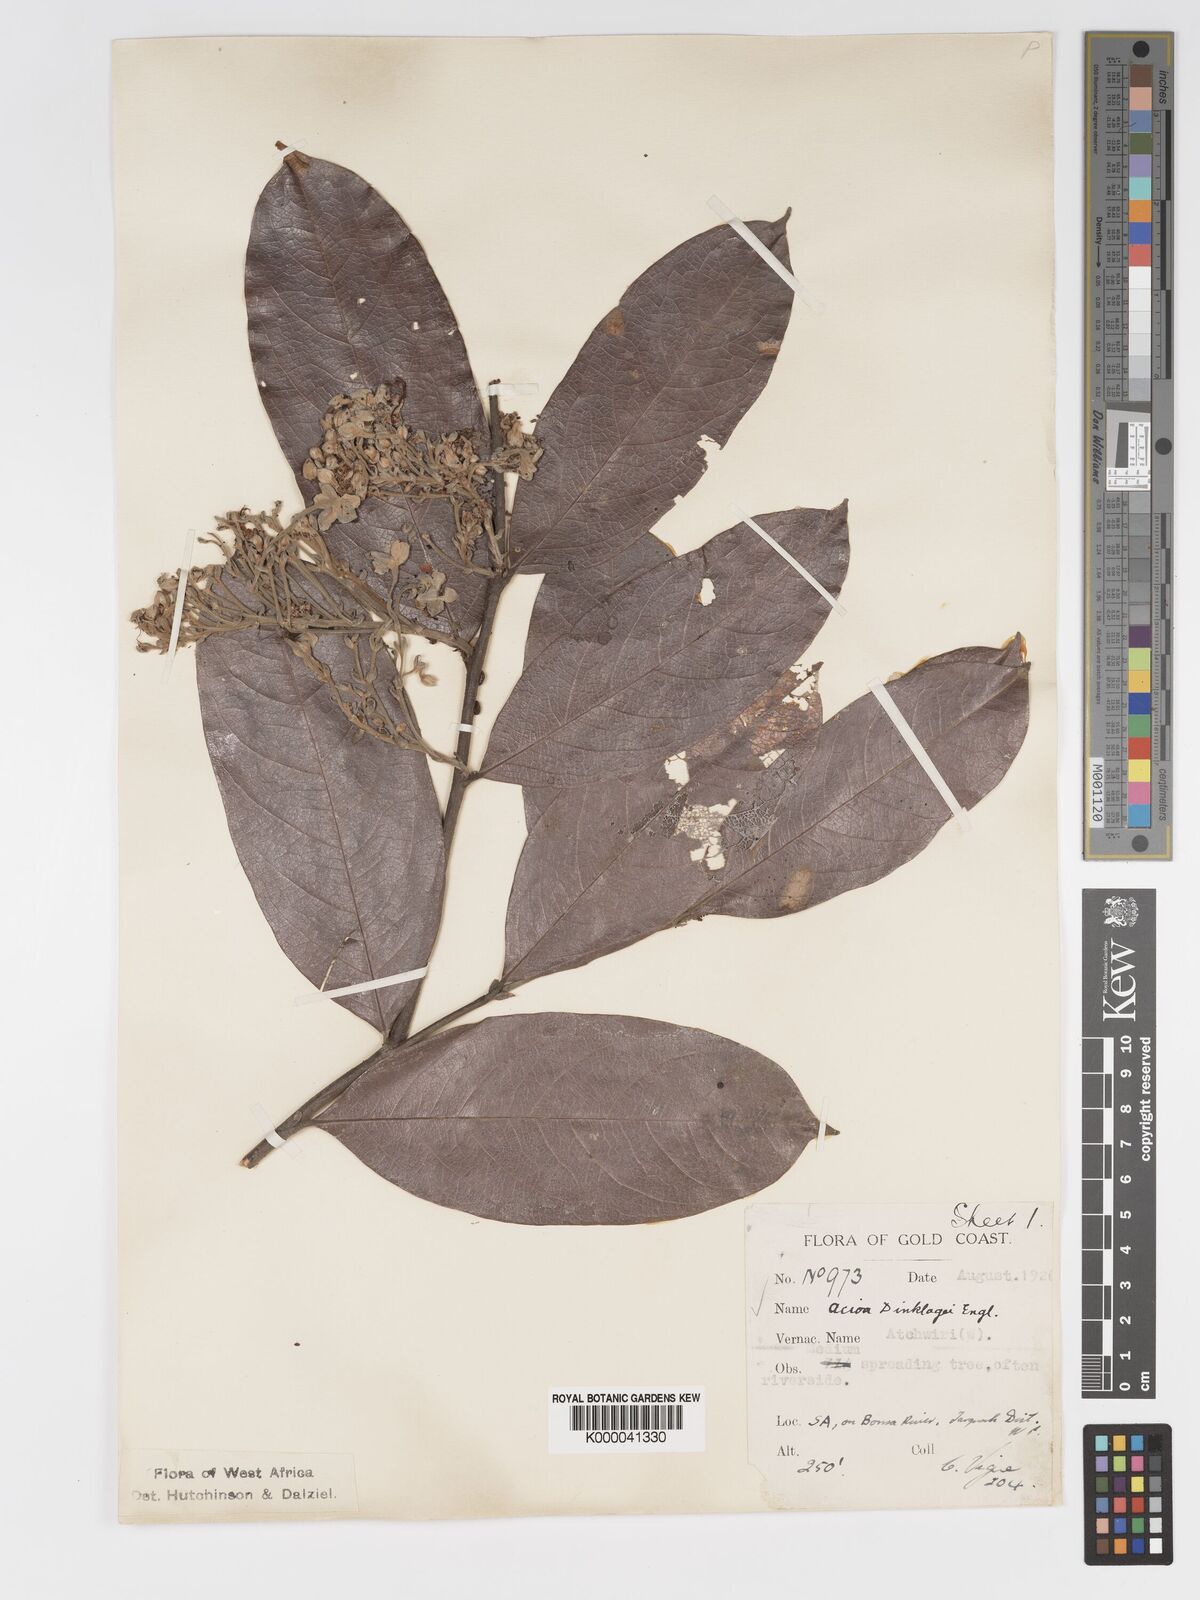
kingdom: Plantae
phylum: Tracheophyta
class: Magnoliopsida
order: Malpighiales
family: Chrysobalanaceae
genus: Dactyladenia
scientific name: Dactyladenia dinklagei
